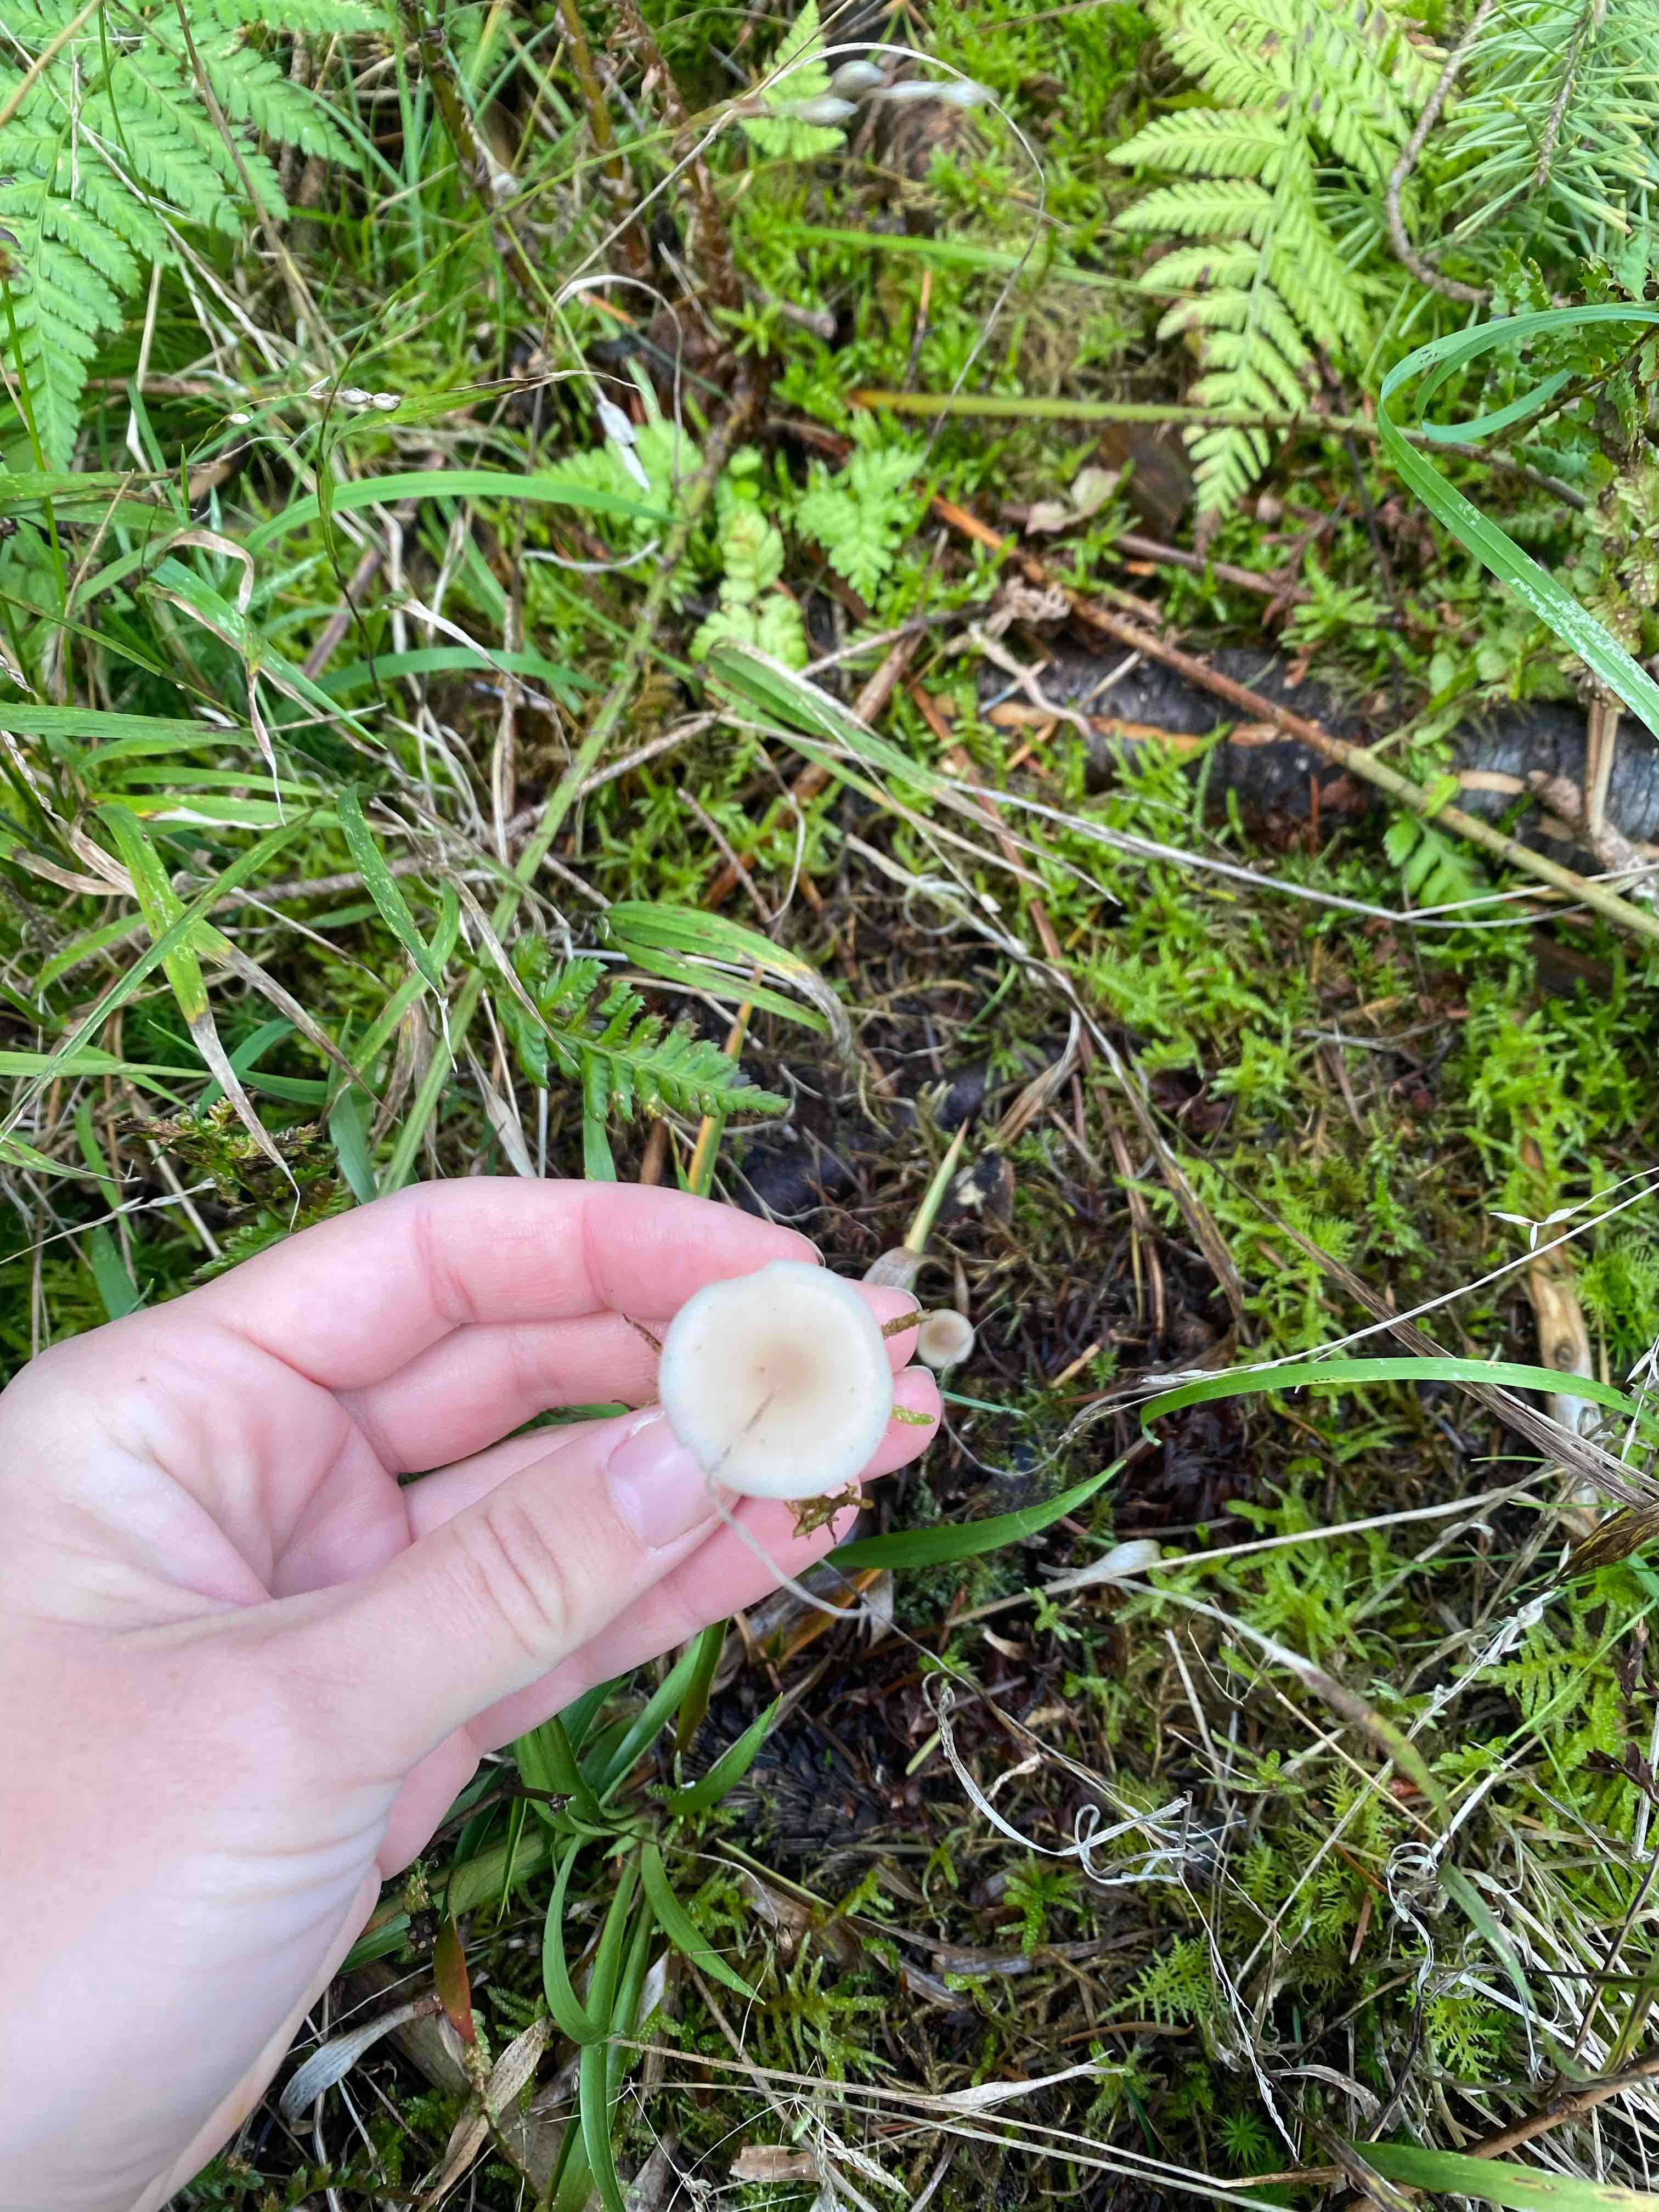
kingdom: Fungi
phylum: Basidiomycota
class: Agaricomycetes
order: Agaricales
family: Tricholomataceae
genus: Clitocybe
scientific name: Clitocybe fragrans
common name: vellugtende tragthat
